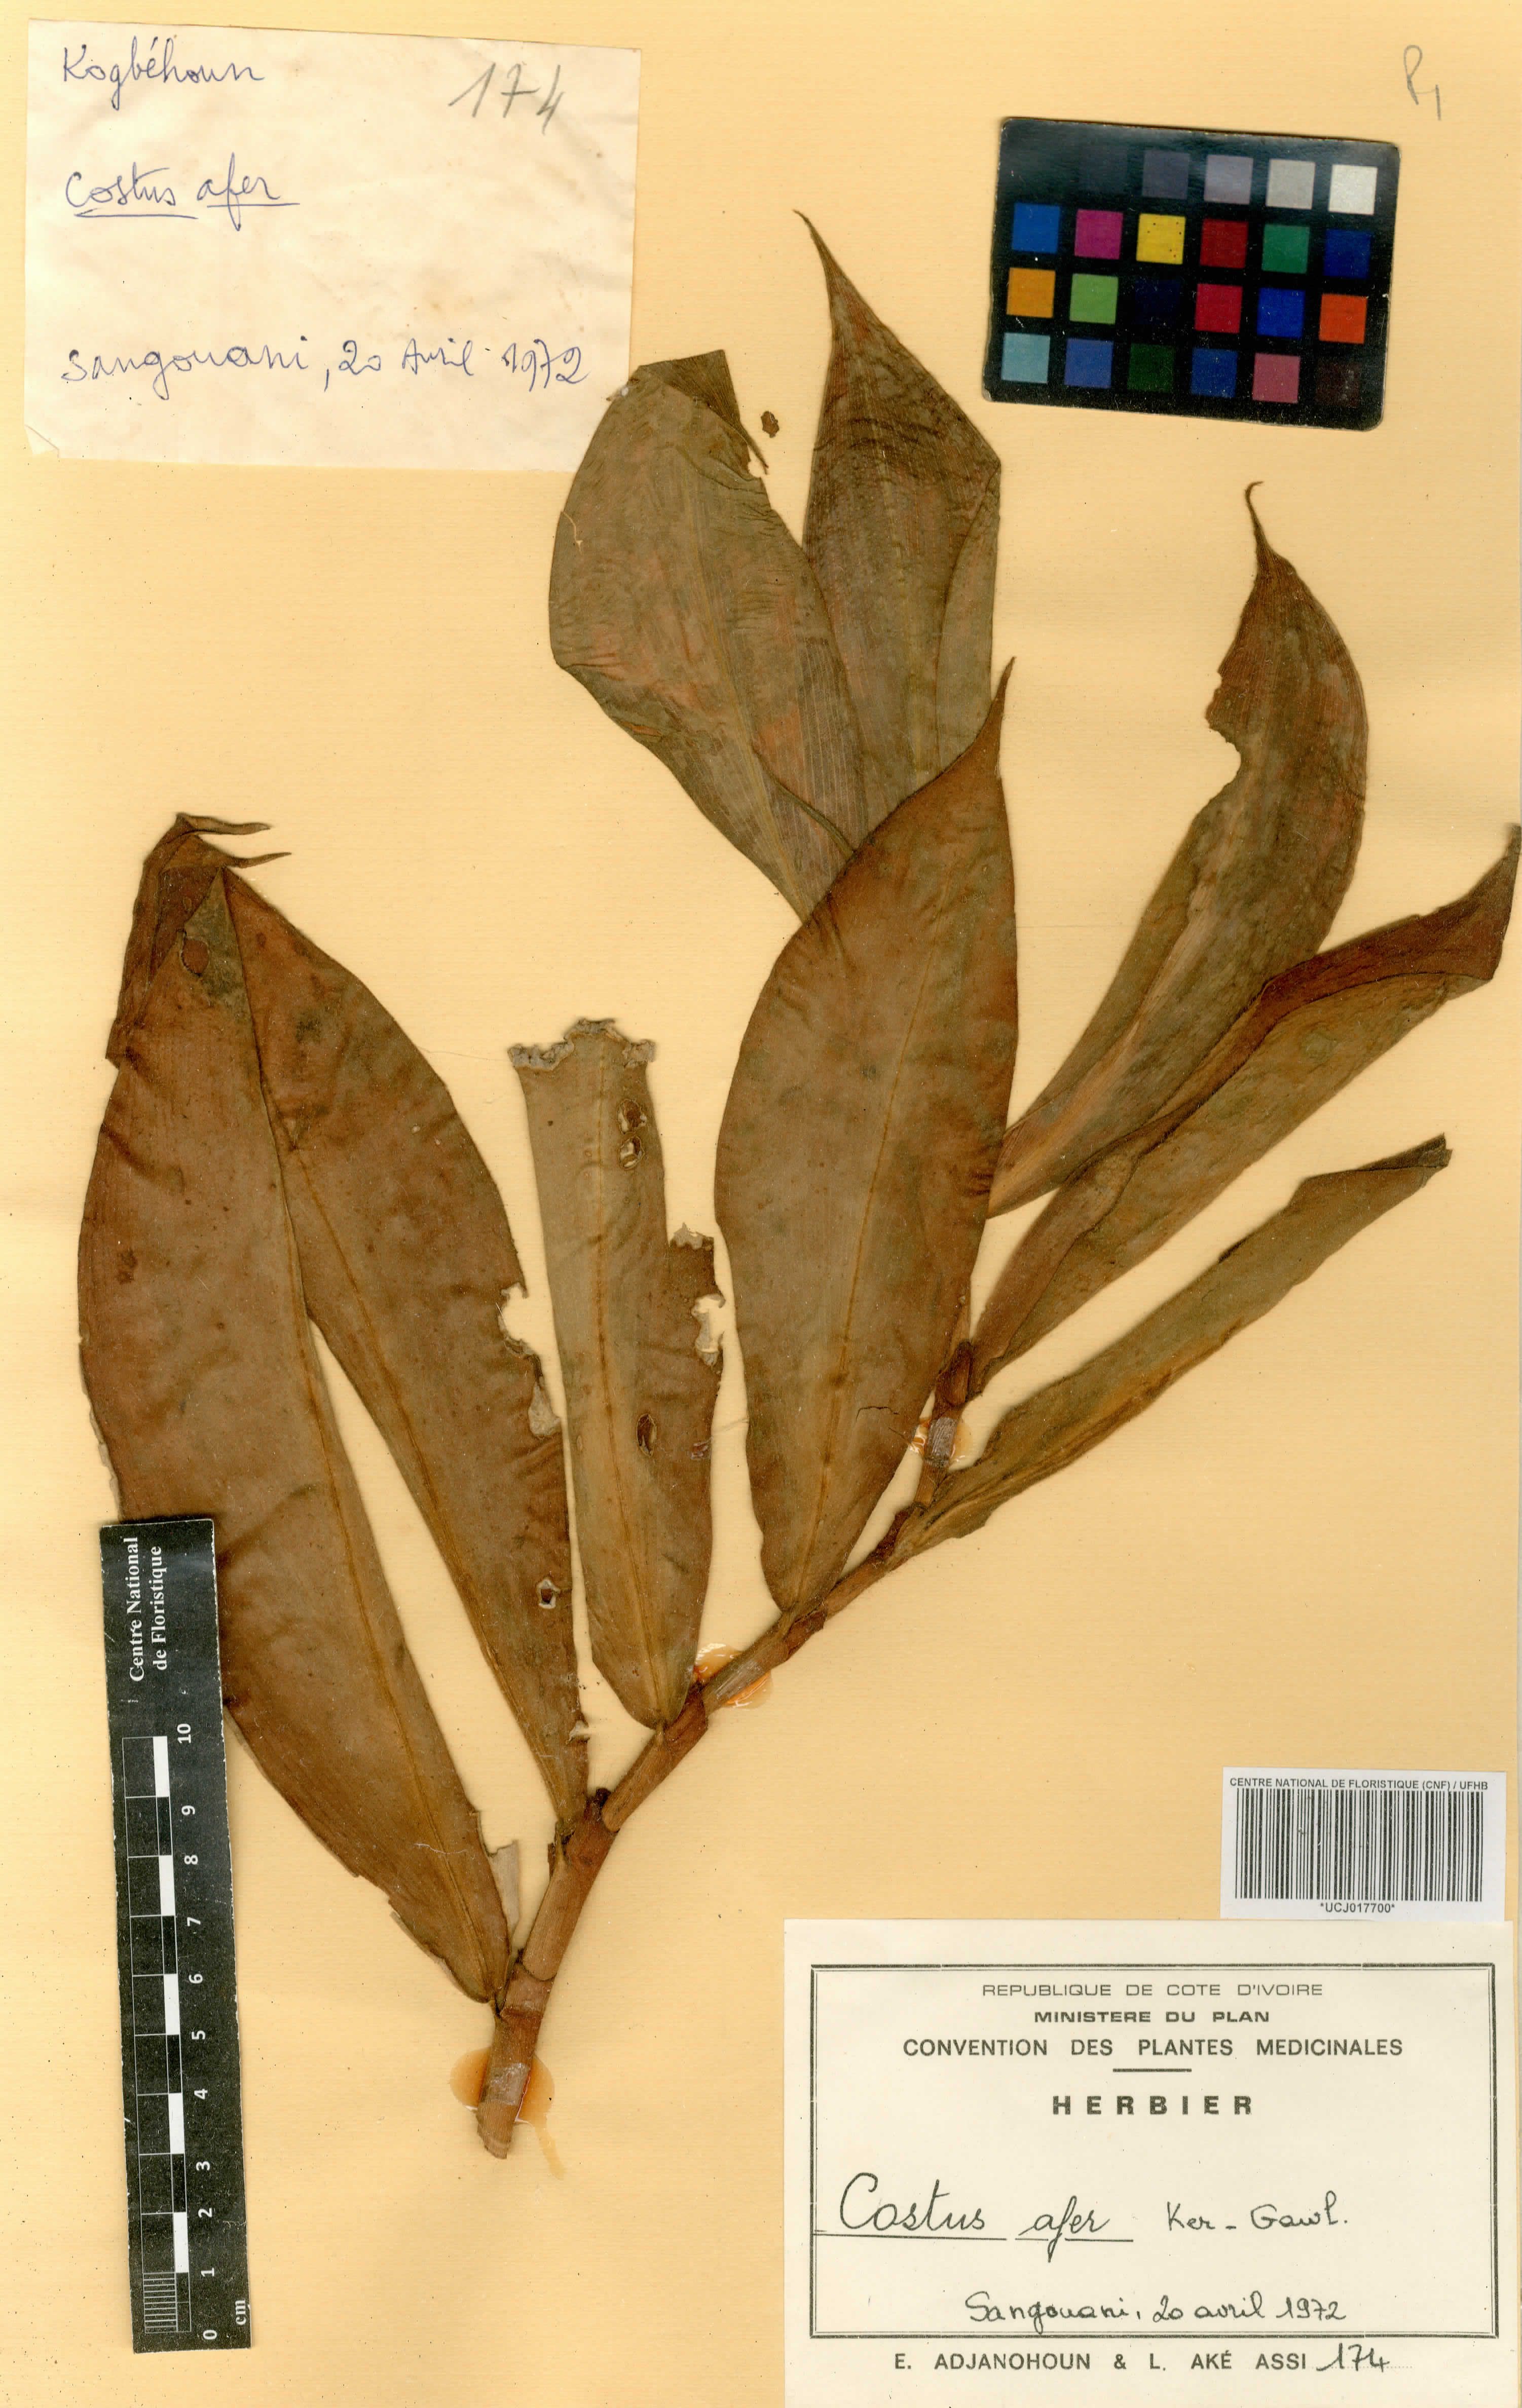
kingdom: Plantae
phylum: Tracheophyta
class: Liliopsida
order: Zingiberales
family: Costaceae
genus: Costus
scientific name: Costus afer
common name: Spiral-ginger
